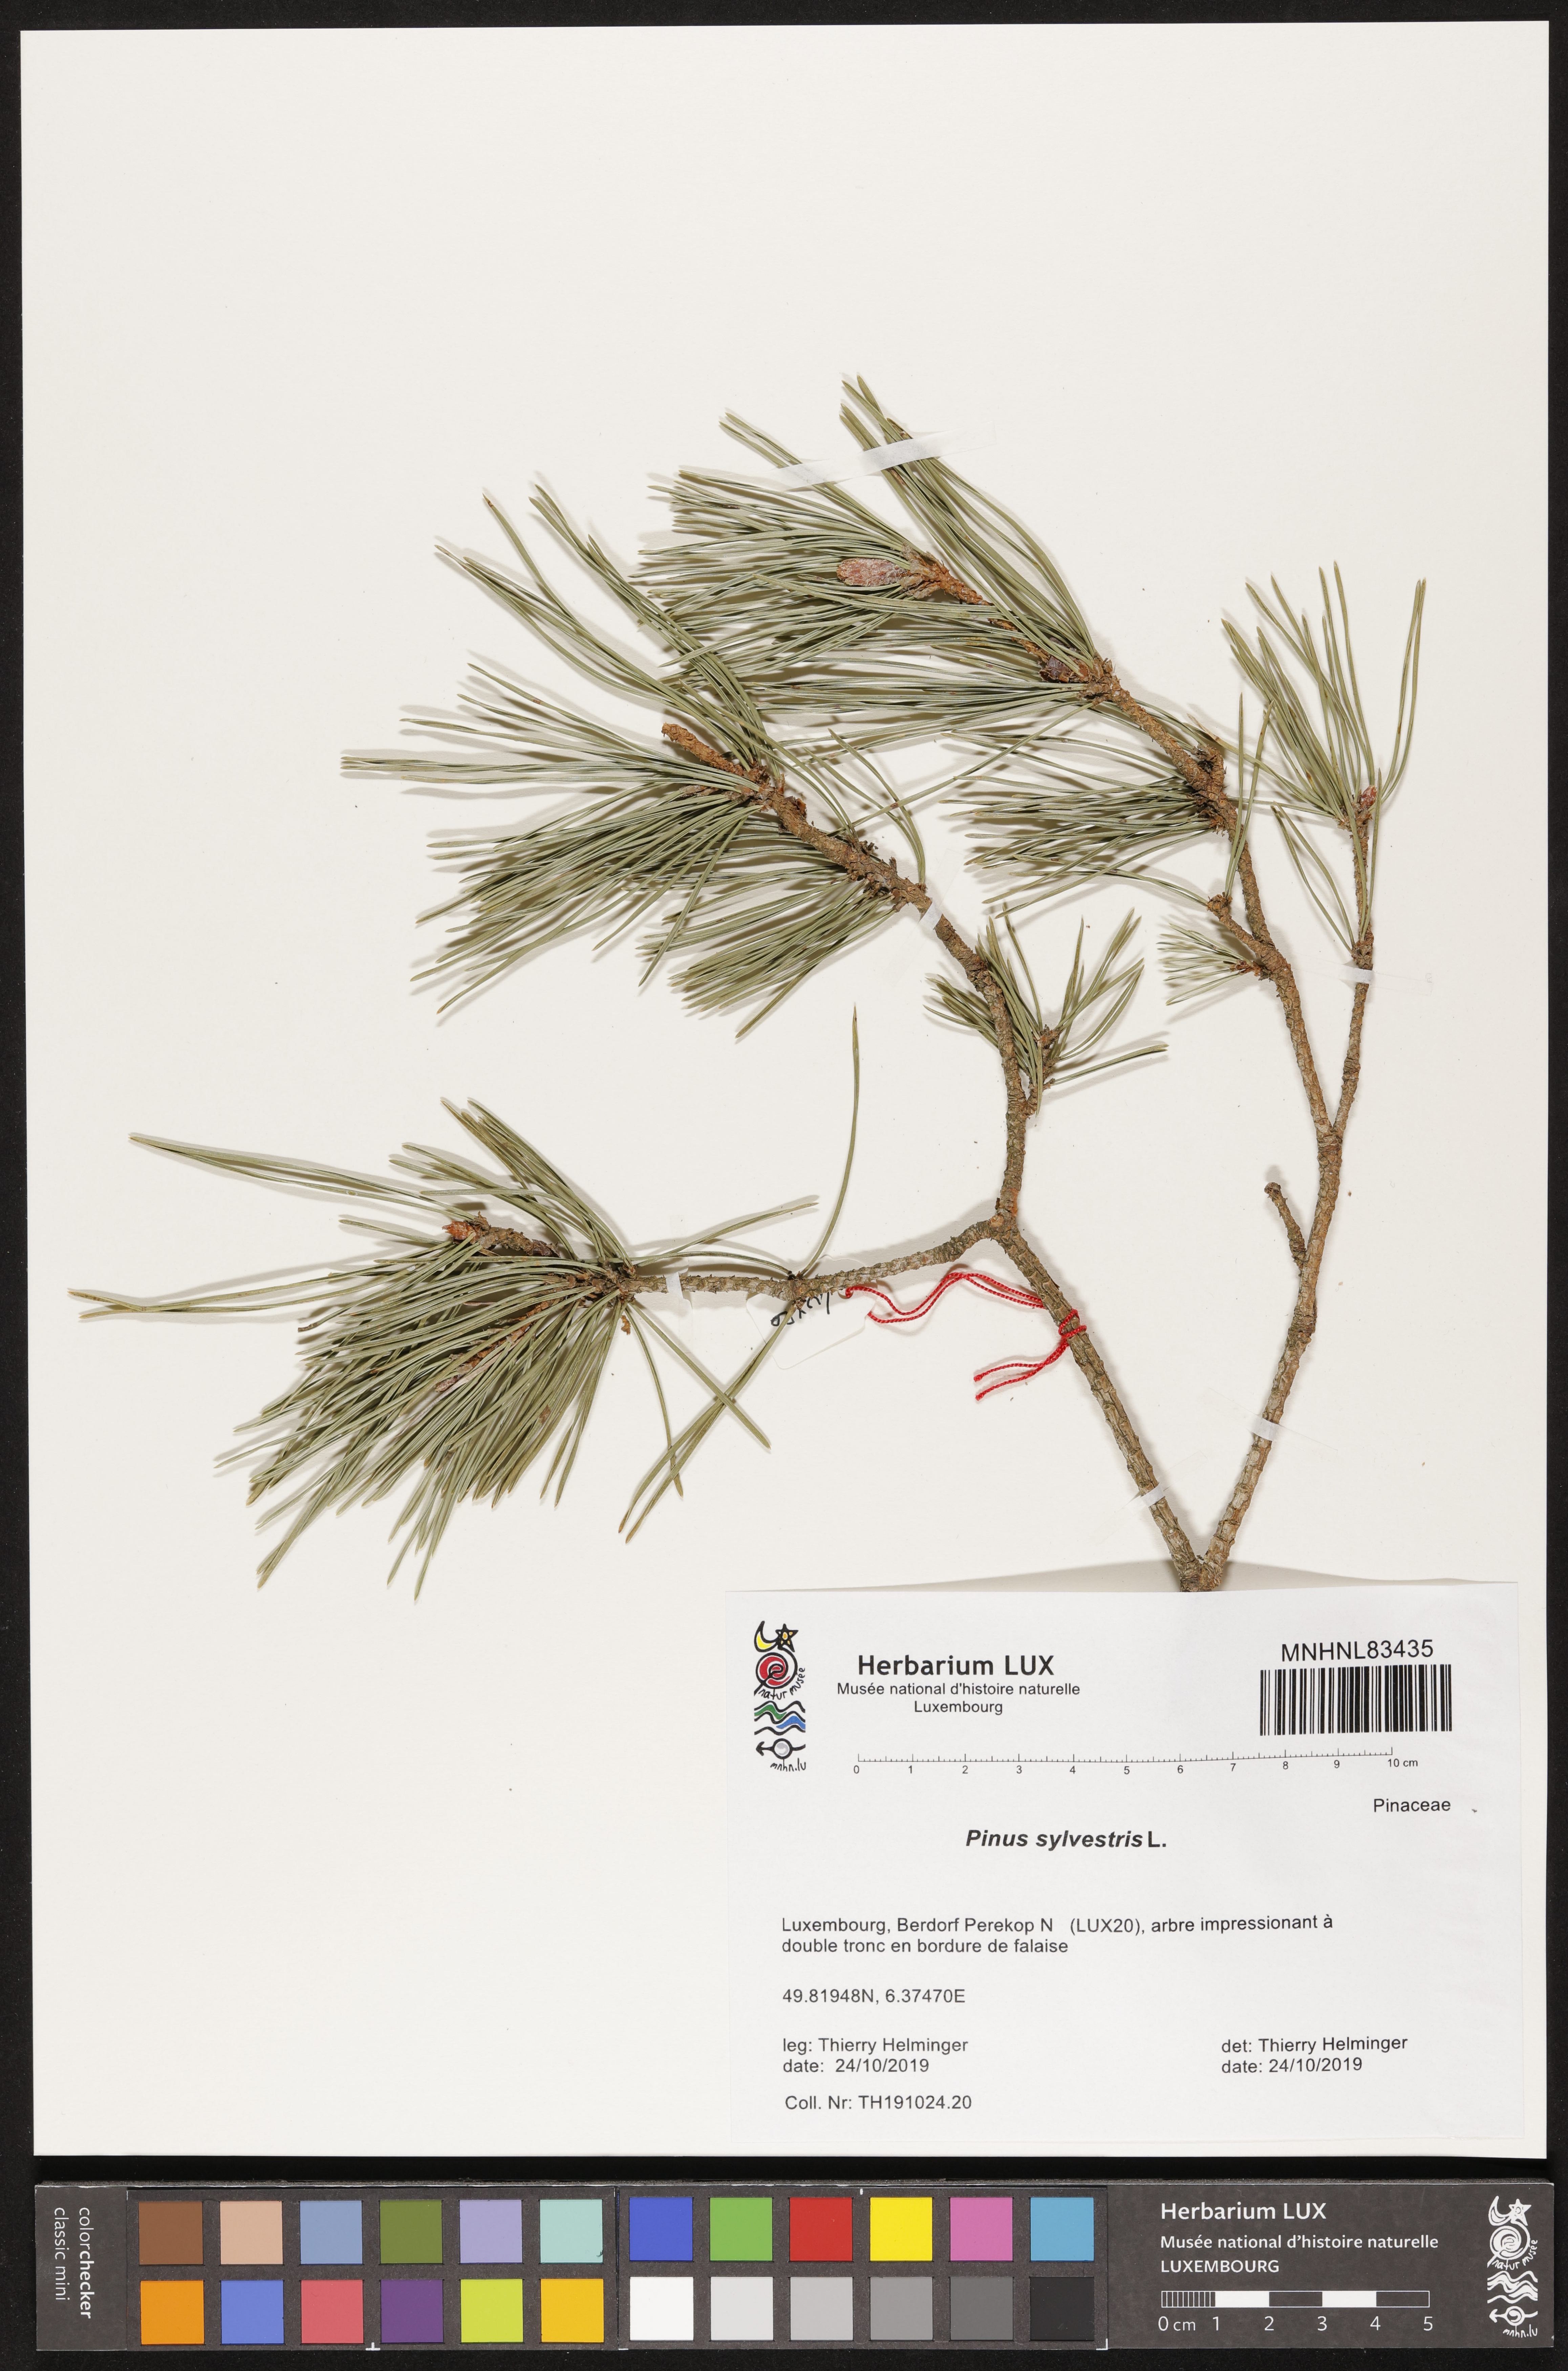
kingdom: Plantae
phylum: Tracheophyta
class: Pinopsida
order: Pinales
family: Pinaceae
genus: Pinus
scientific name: Pinus sylvestris
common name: Scots pine
